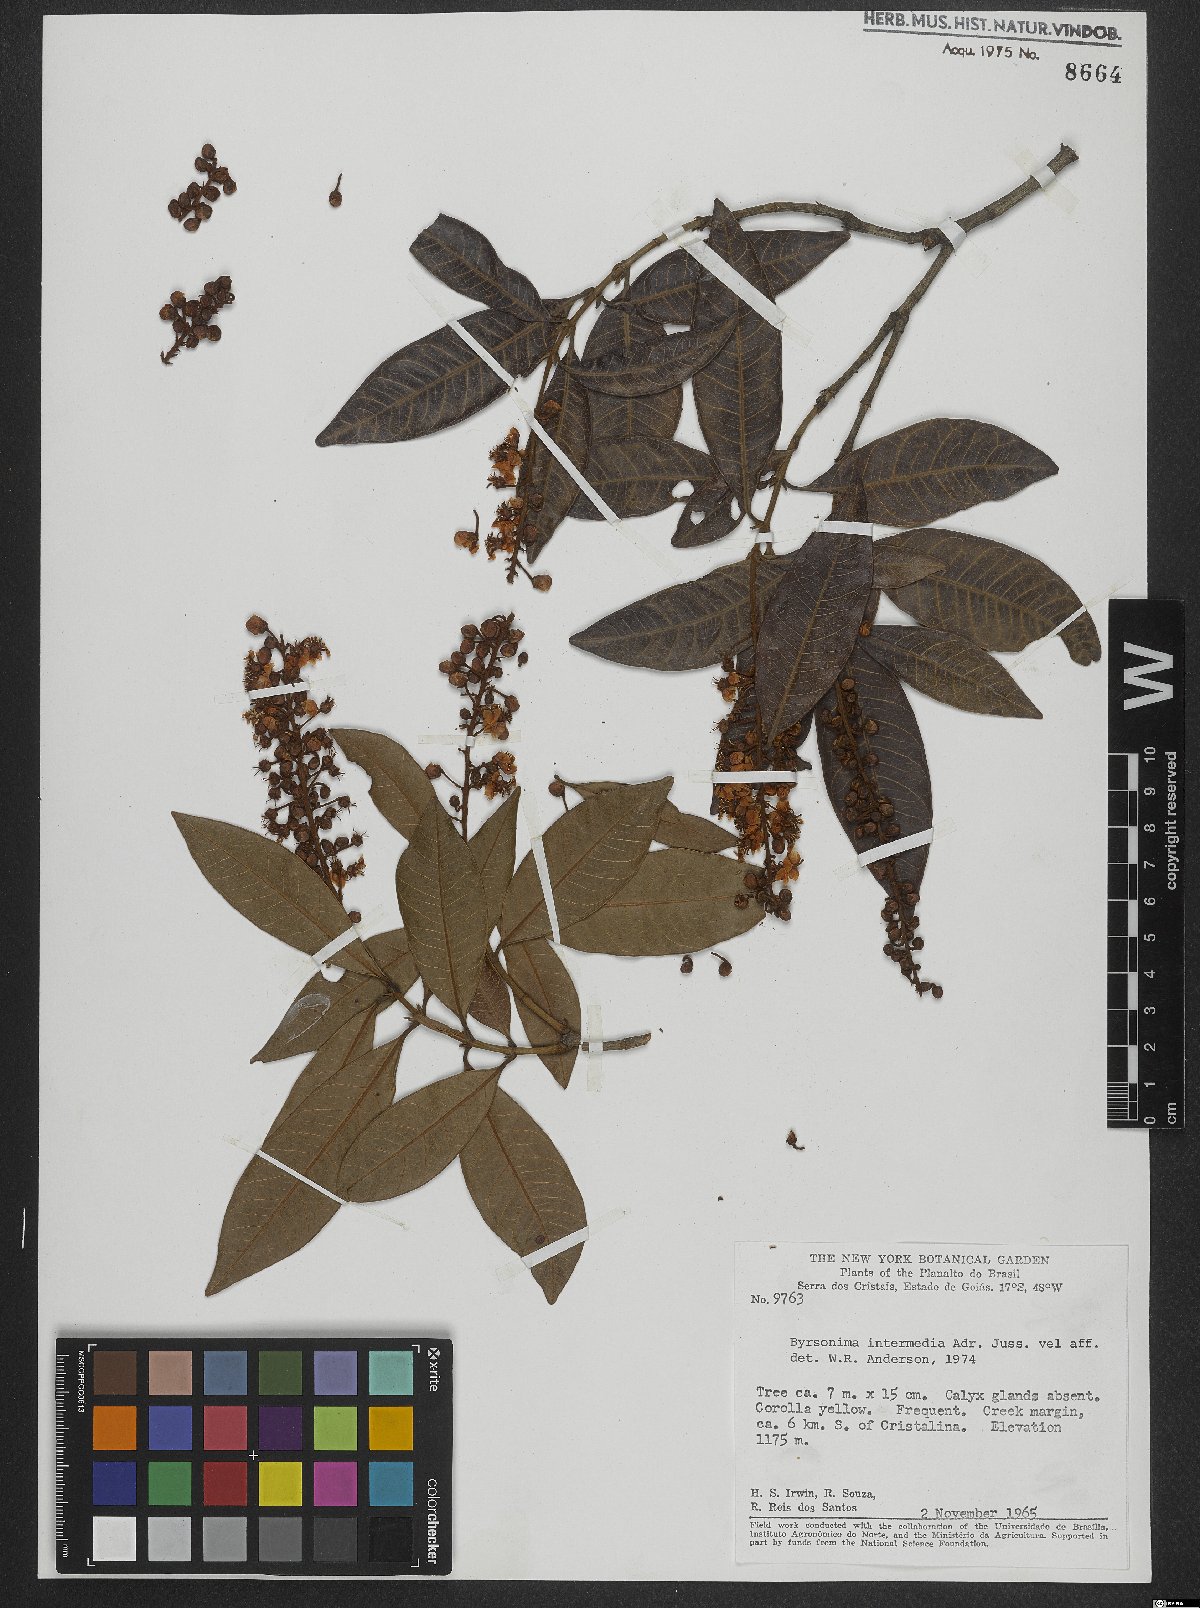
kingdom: Plantae
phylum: Tracheophyta
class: Magnoliopsida
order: Malpighiales
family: Malpighiaceae
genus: Byrsonima
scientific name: Byrsonima intermedia
